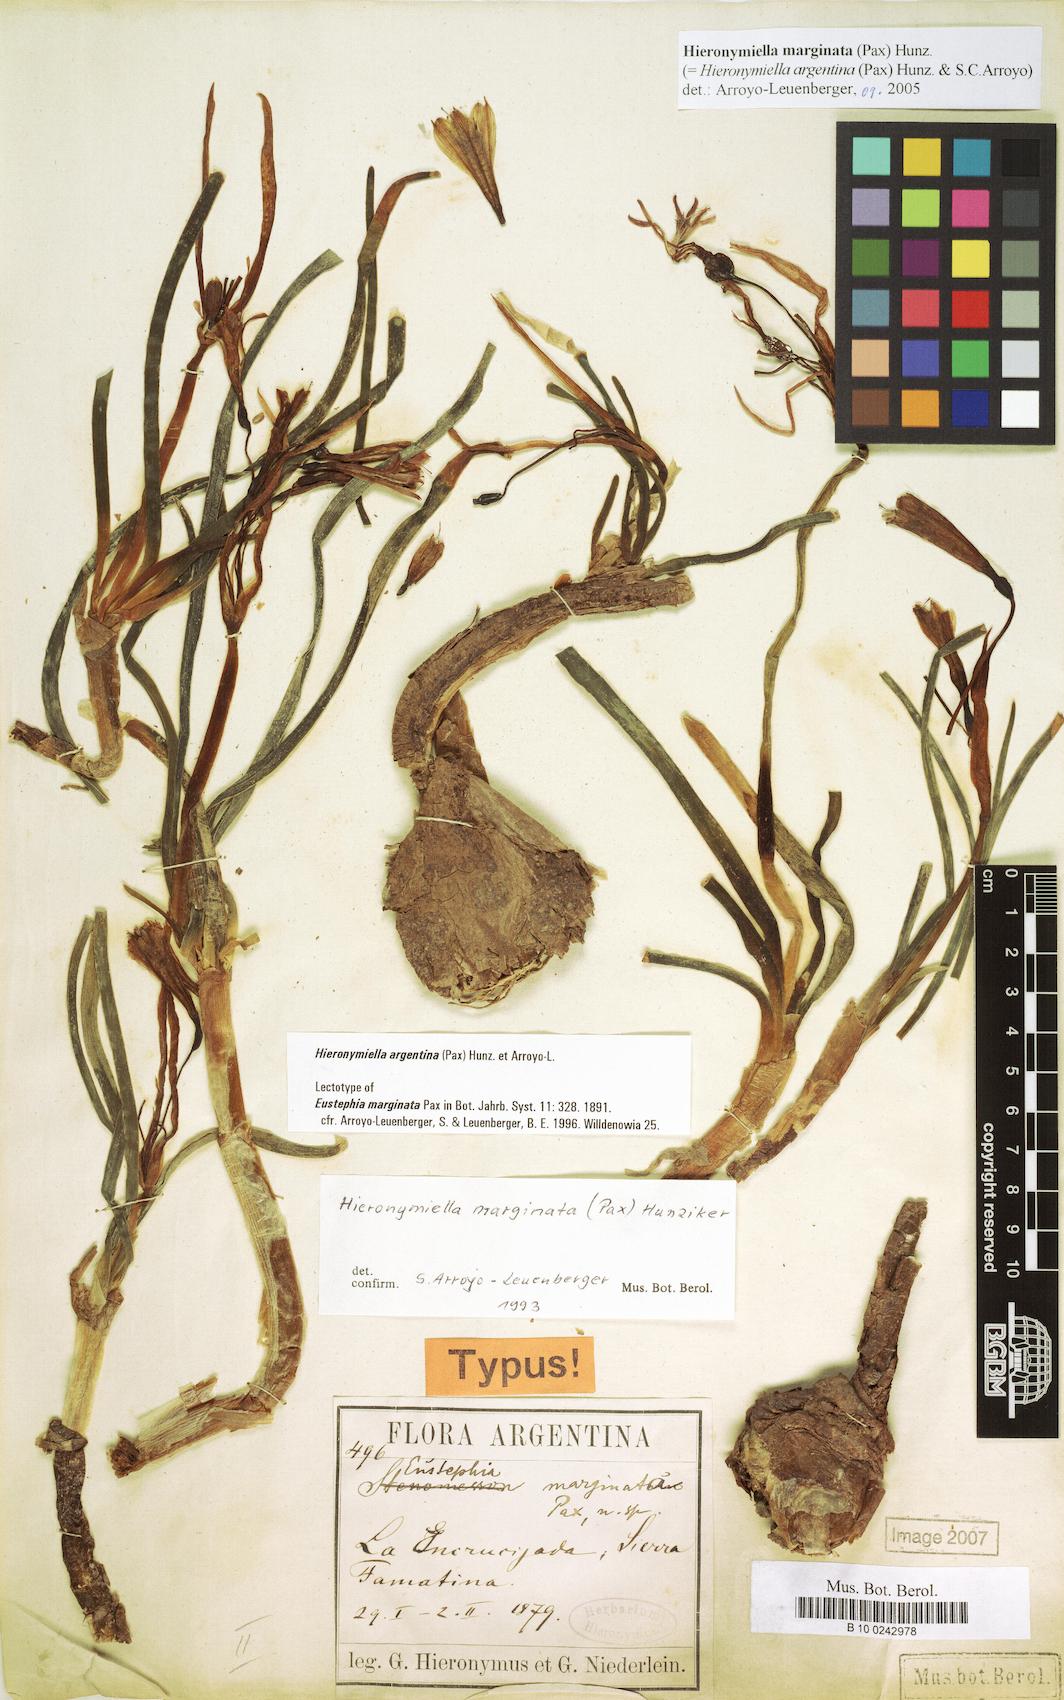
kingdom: Plantae
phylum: Tracheophyta
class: Liliopsida
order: Asparagales
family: Amaryllidaceae
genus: Hieronymiella
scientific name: Hieronymiella argentina
